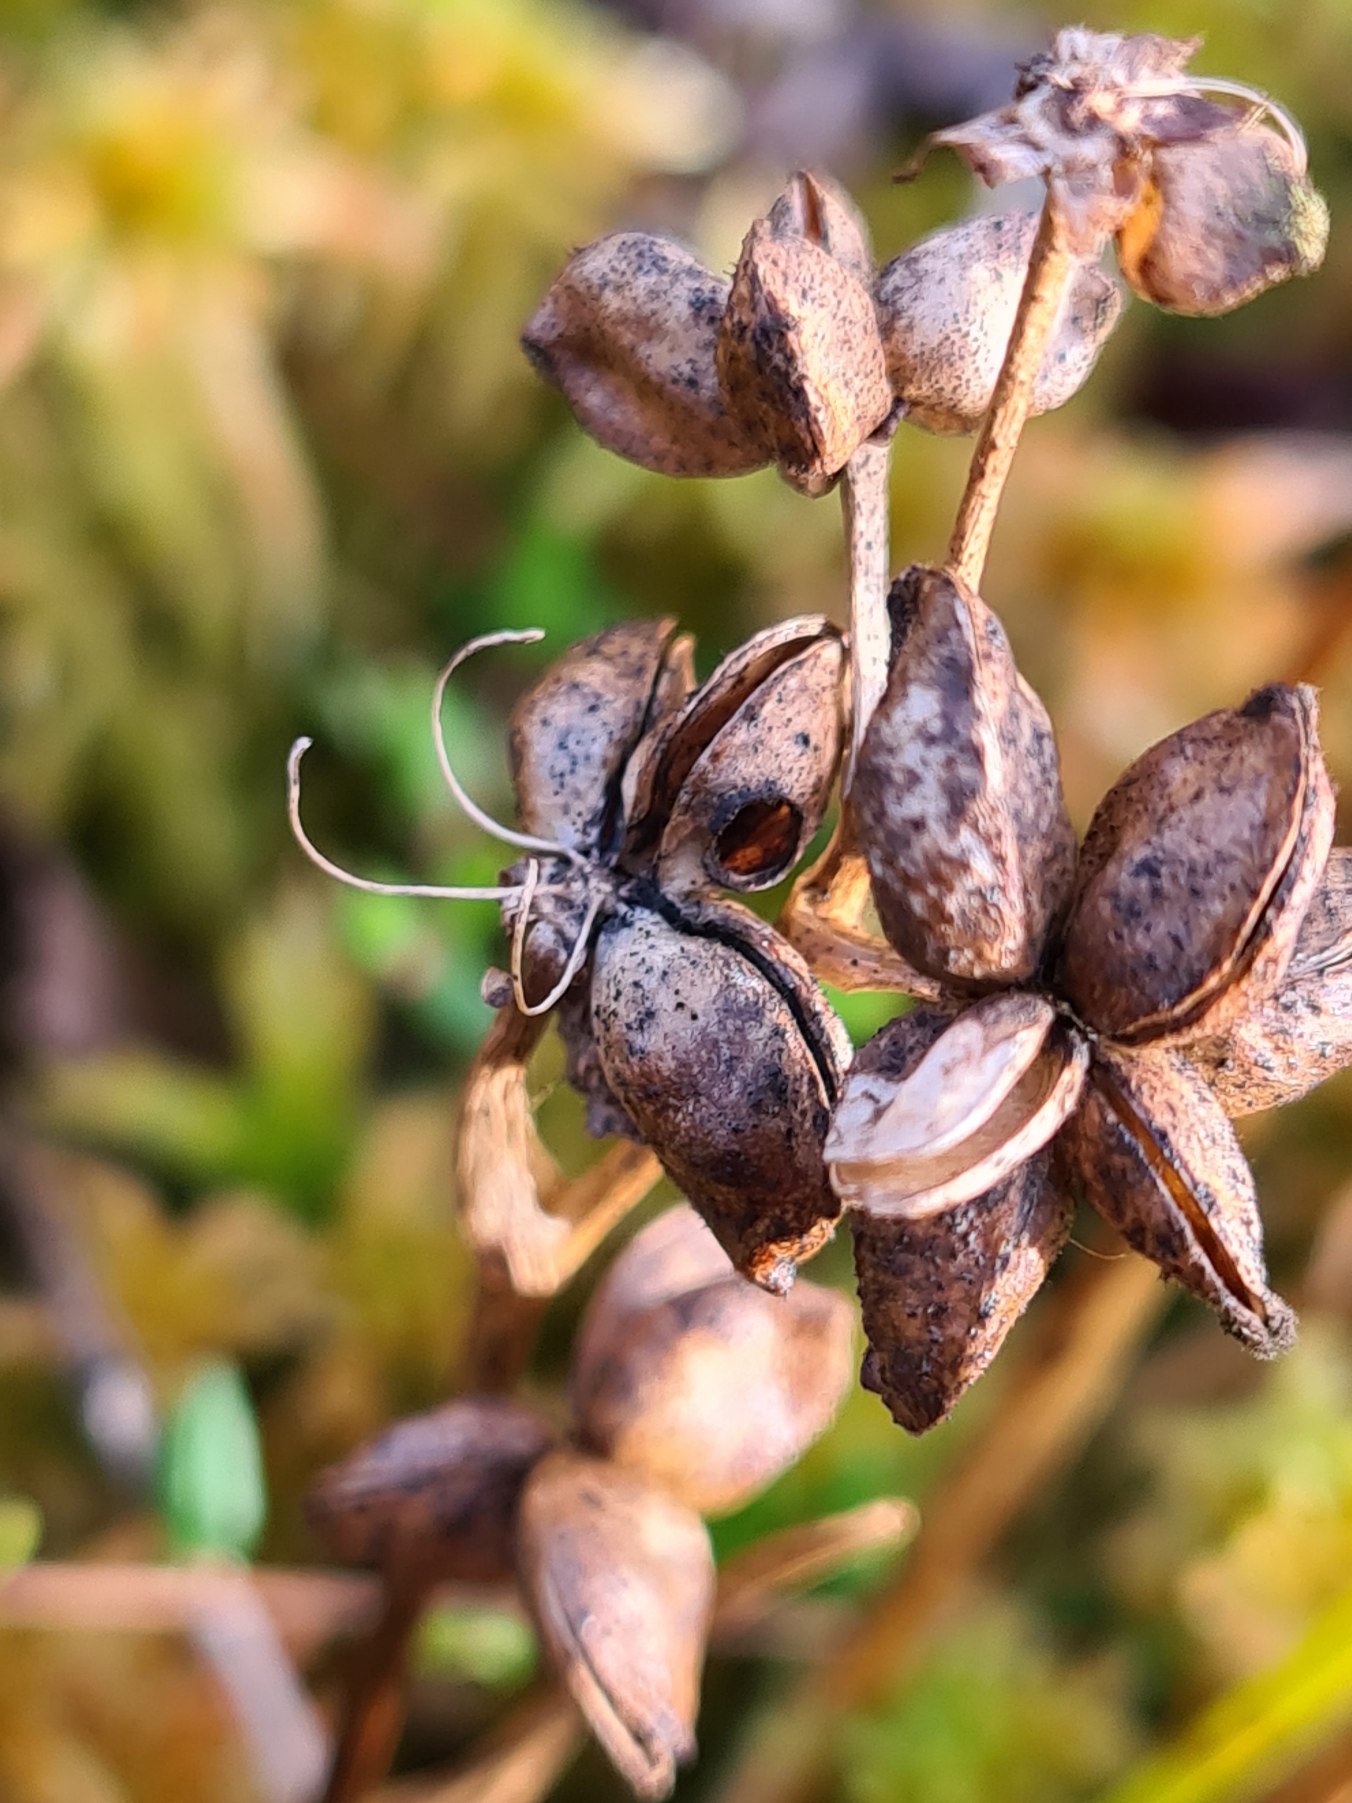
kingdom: Plantae
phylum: Tracheophyta
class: Liliopsida
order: Alismatales
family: Scheuchzeriaceae
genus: Scheuchzeria
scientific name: Scheuchzeria palustris
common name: Blomstersiv
